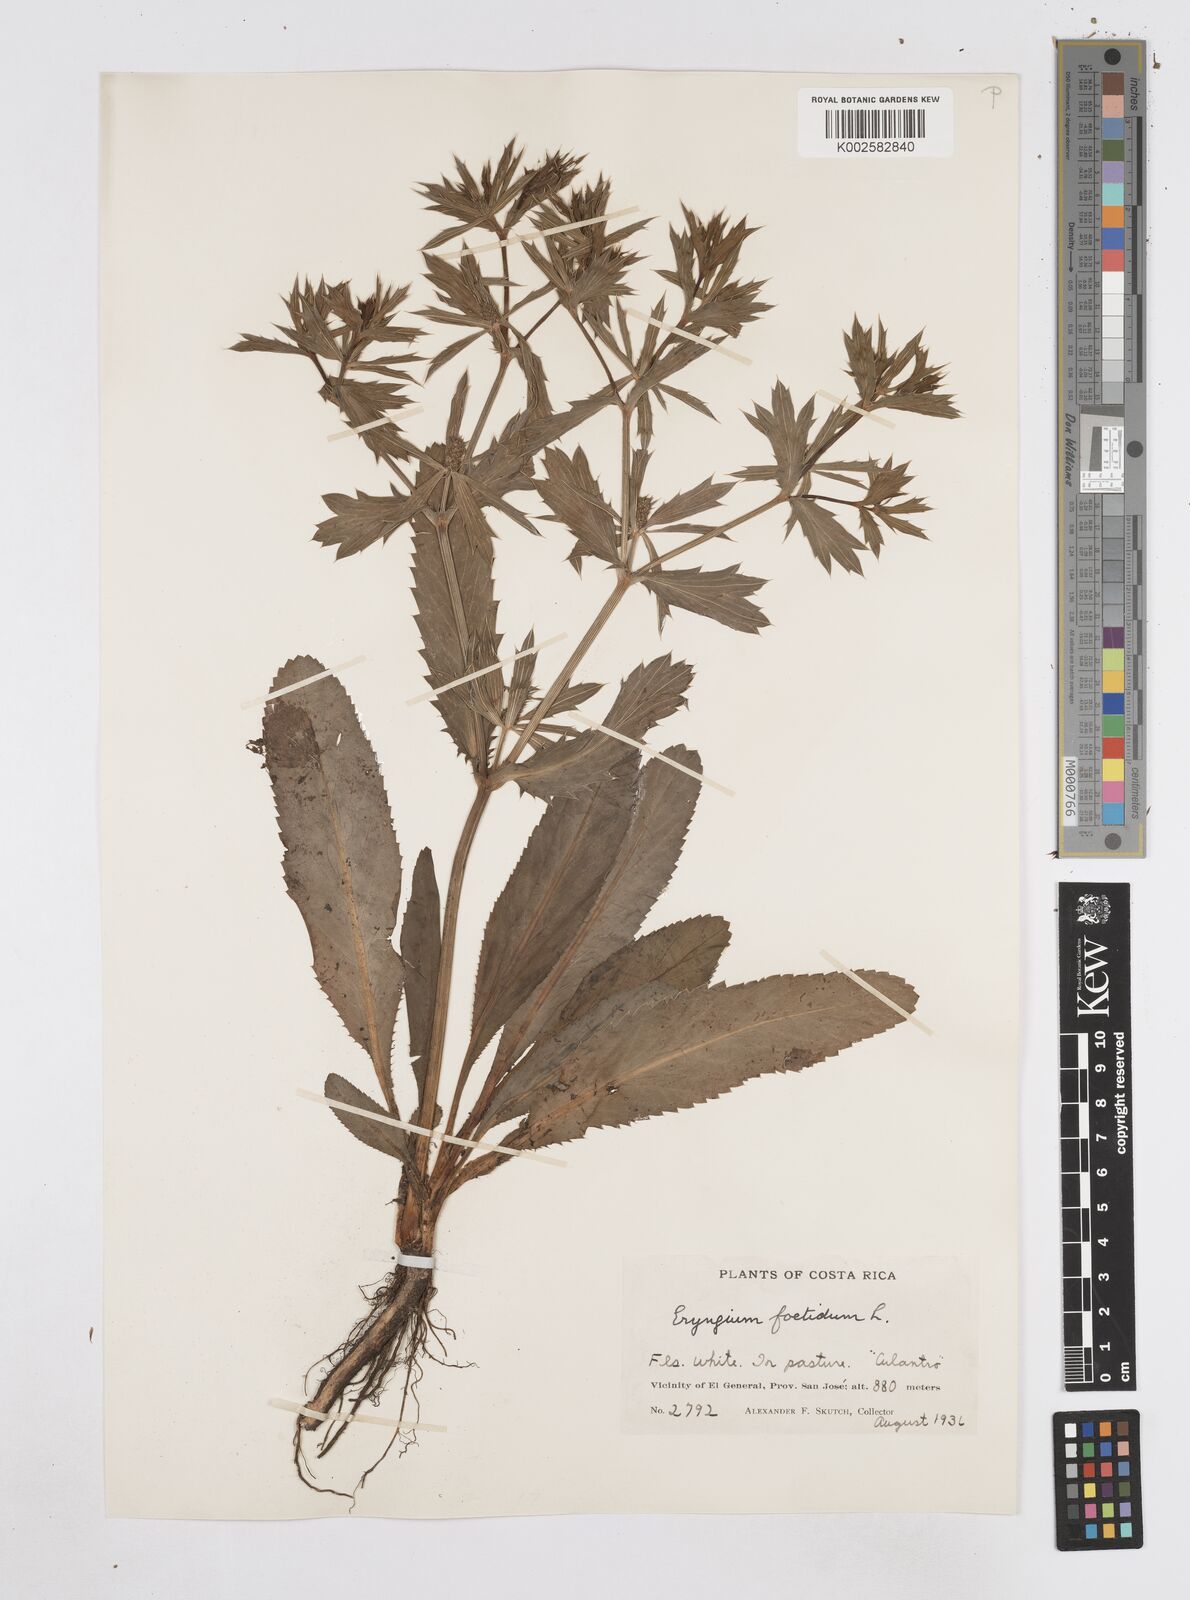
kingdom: Plantae
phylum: Tracheophyta
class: Magnoliopsida
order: Apiales
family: Apiaceae
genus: Eryngium
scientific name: Eryngium foetidum
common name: Fitweed
